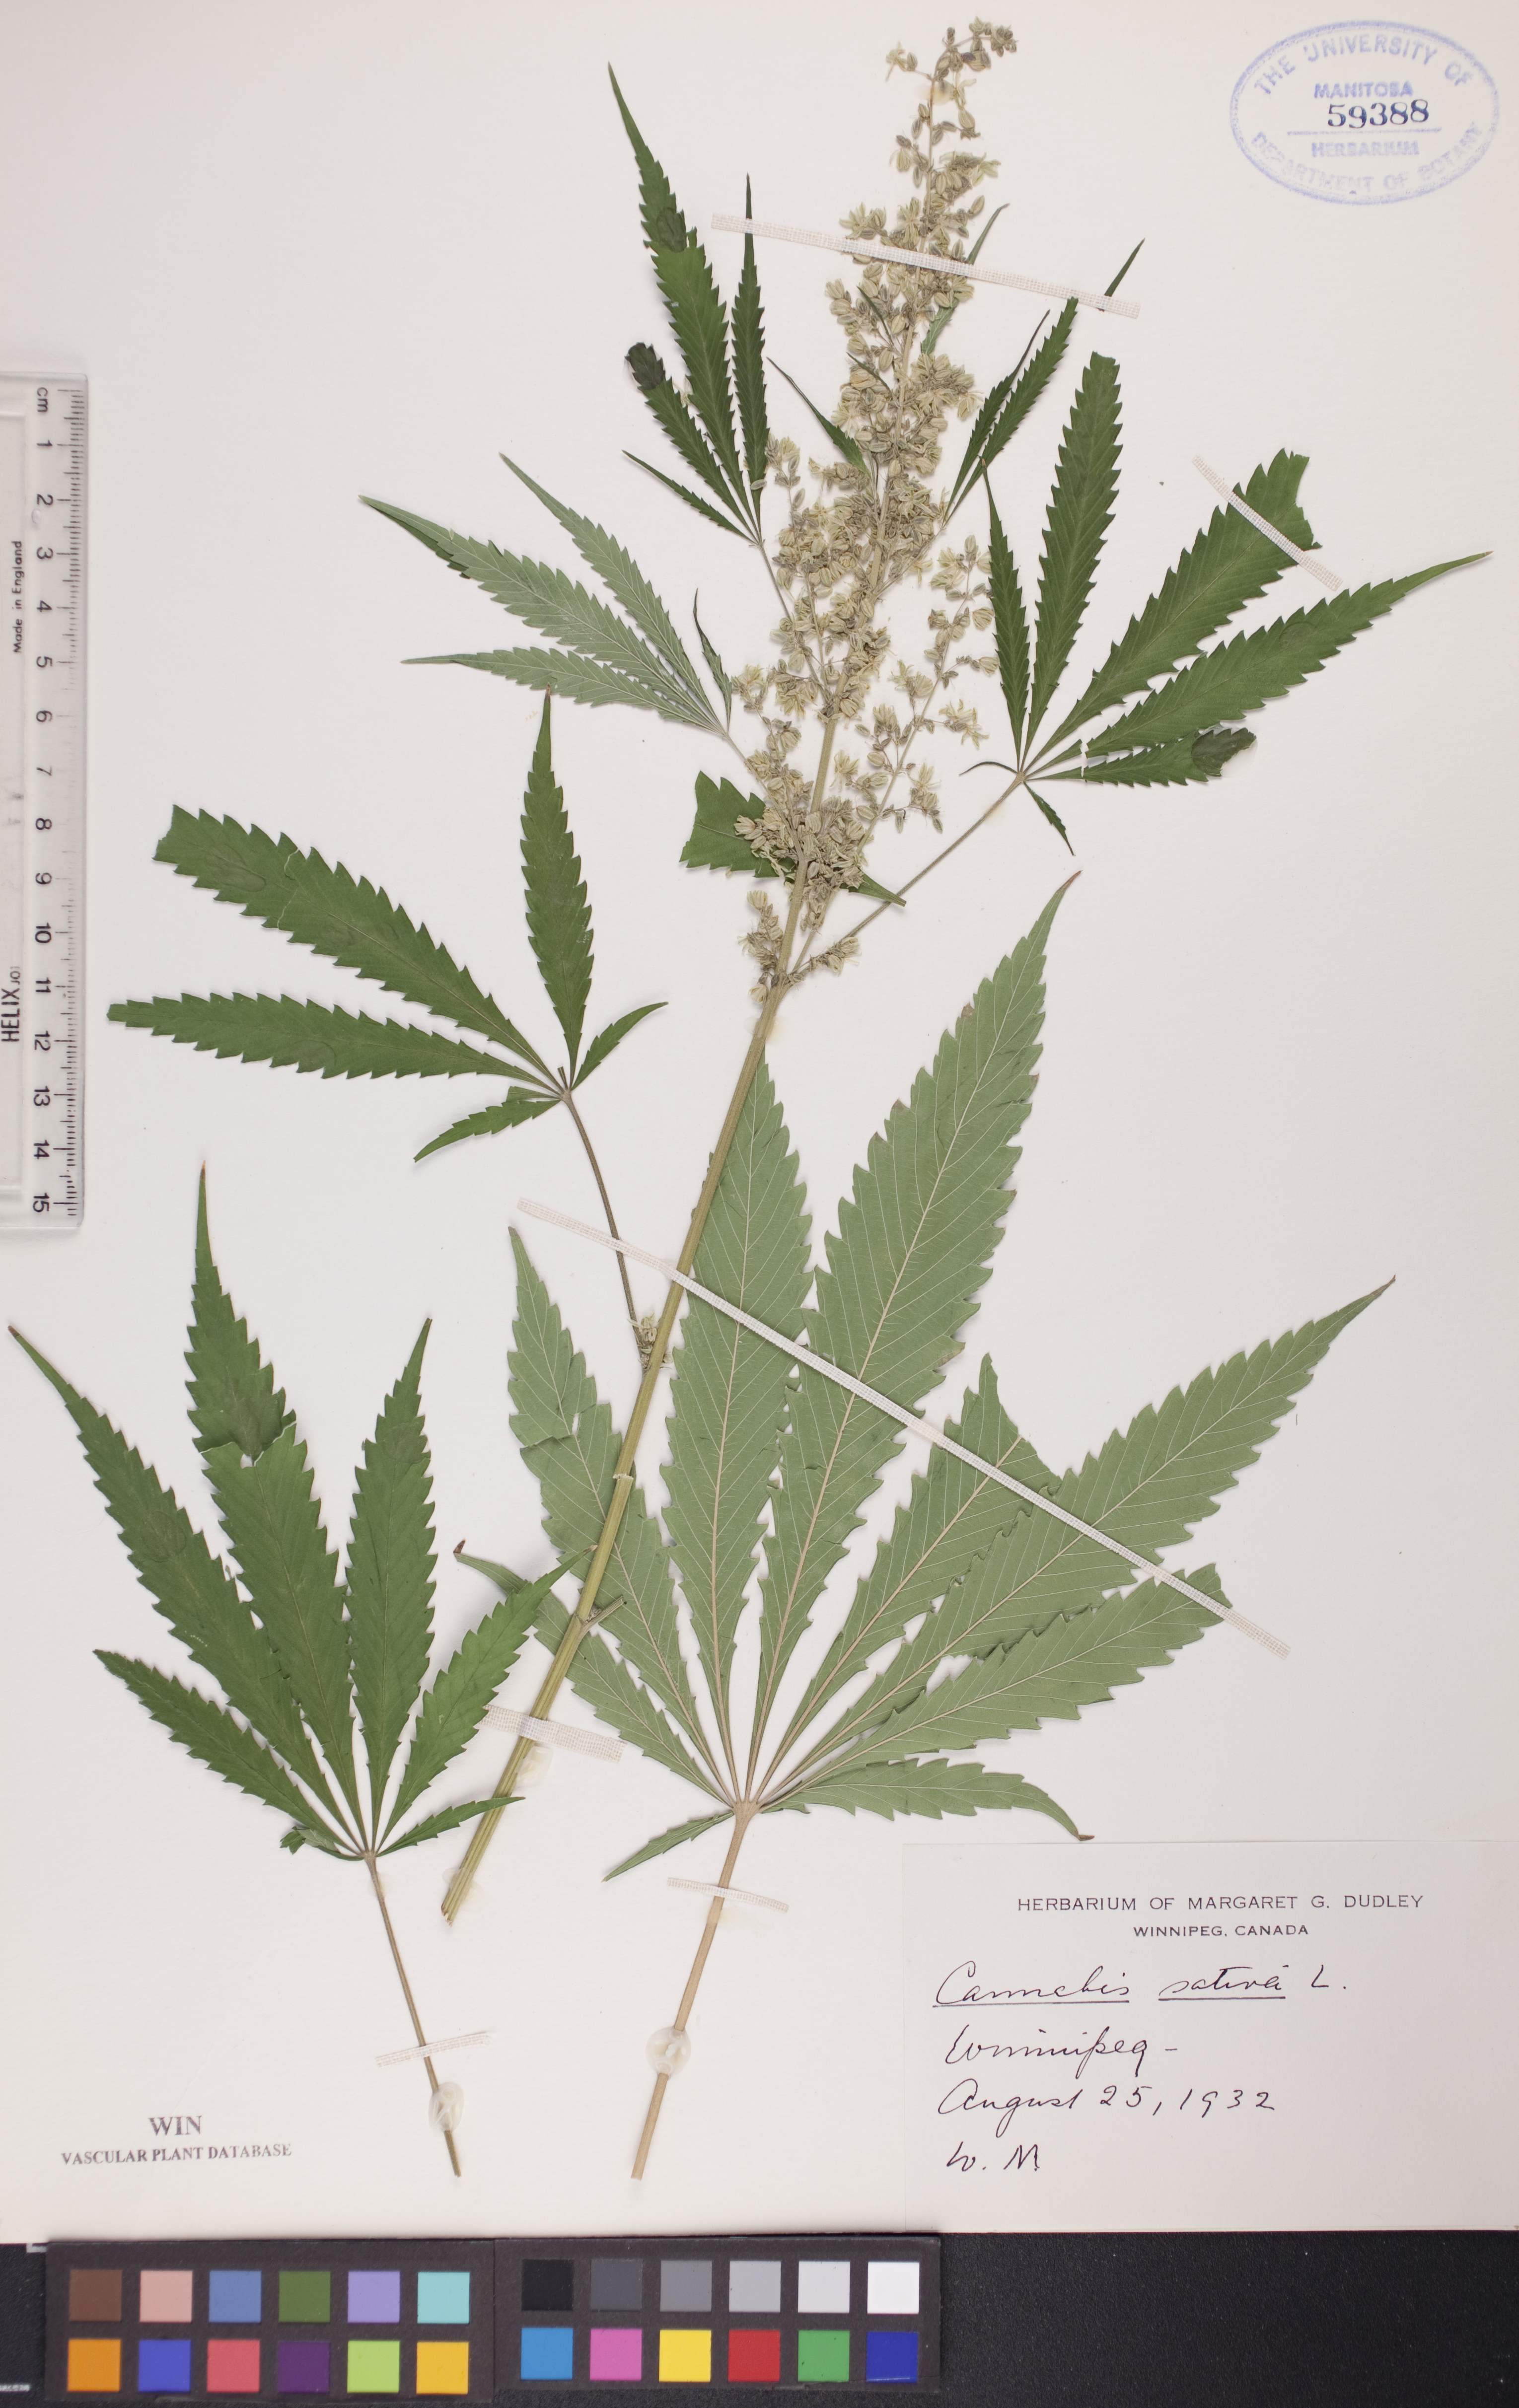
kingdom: Plantae
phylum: Tracheophyta
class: Magnoliopsida
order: Rosales
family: Cannabaceae
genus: Cannabis
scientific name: Cannabis sativa
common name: Hemp
